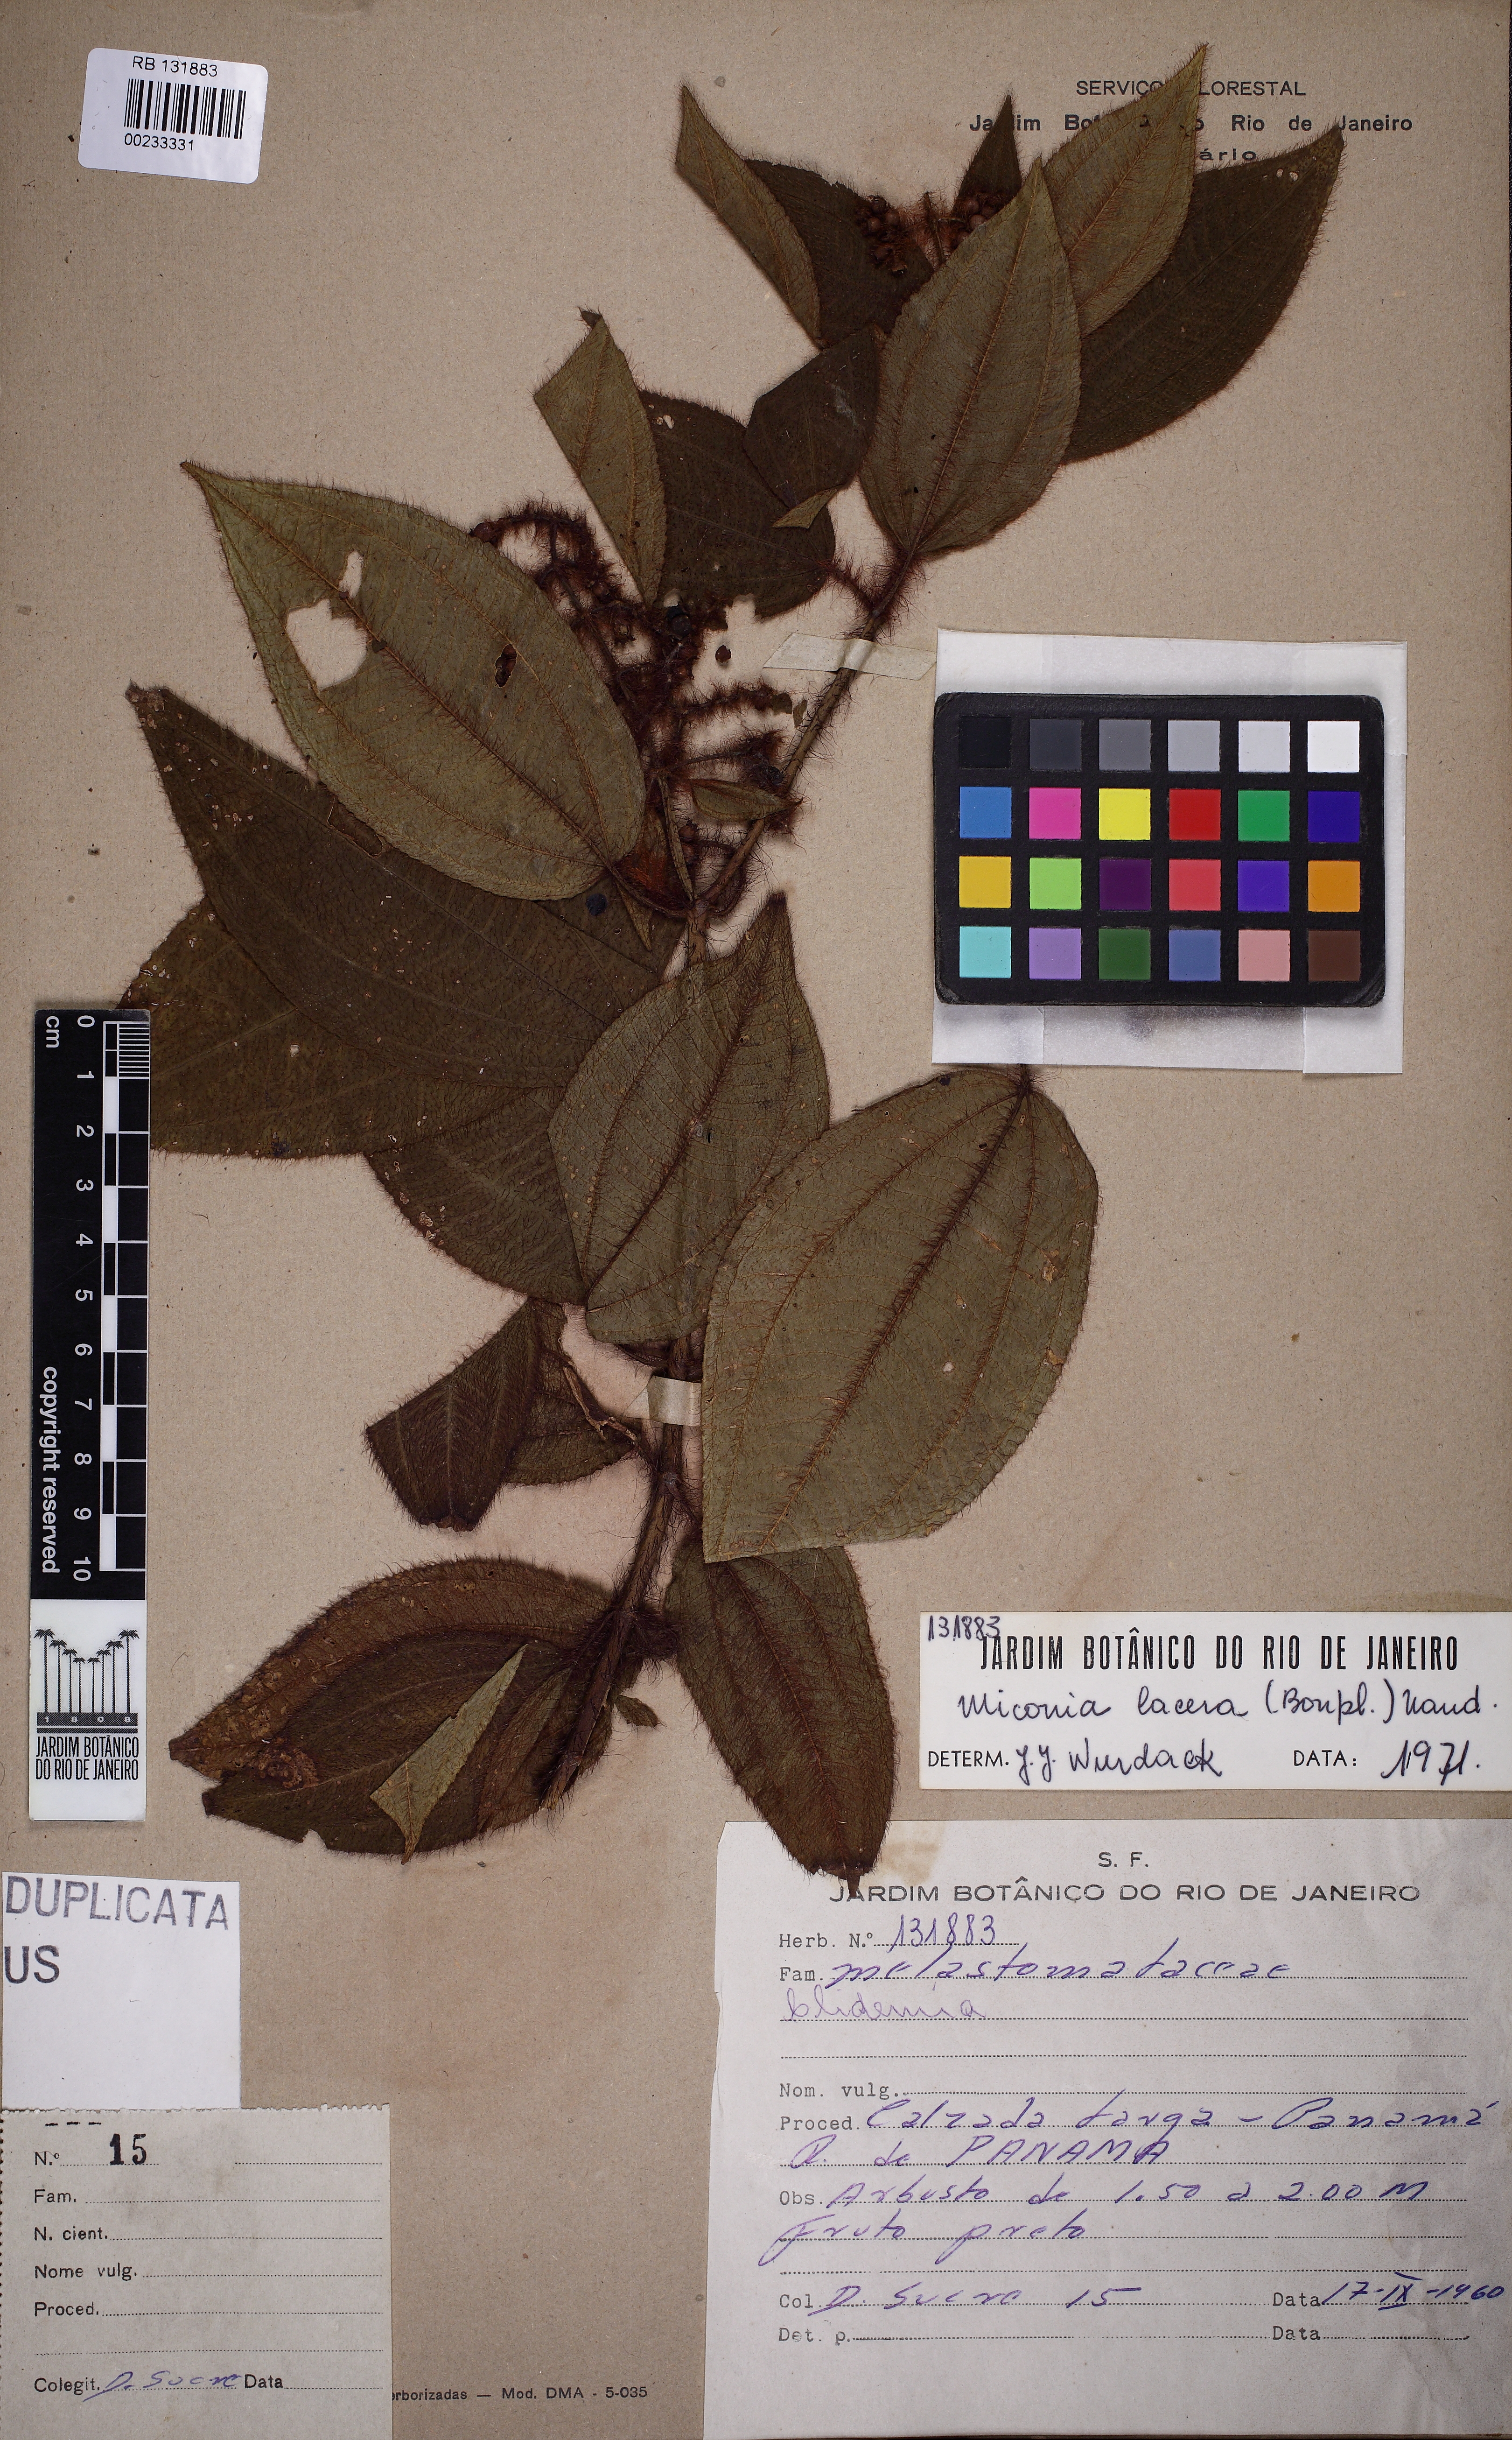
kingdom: Plantae
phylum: Tracheophyta
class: Magnoliopsida
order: Myrtales
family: Melastomataceae
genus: Miconia
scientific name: Miconia lacera
